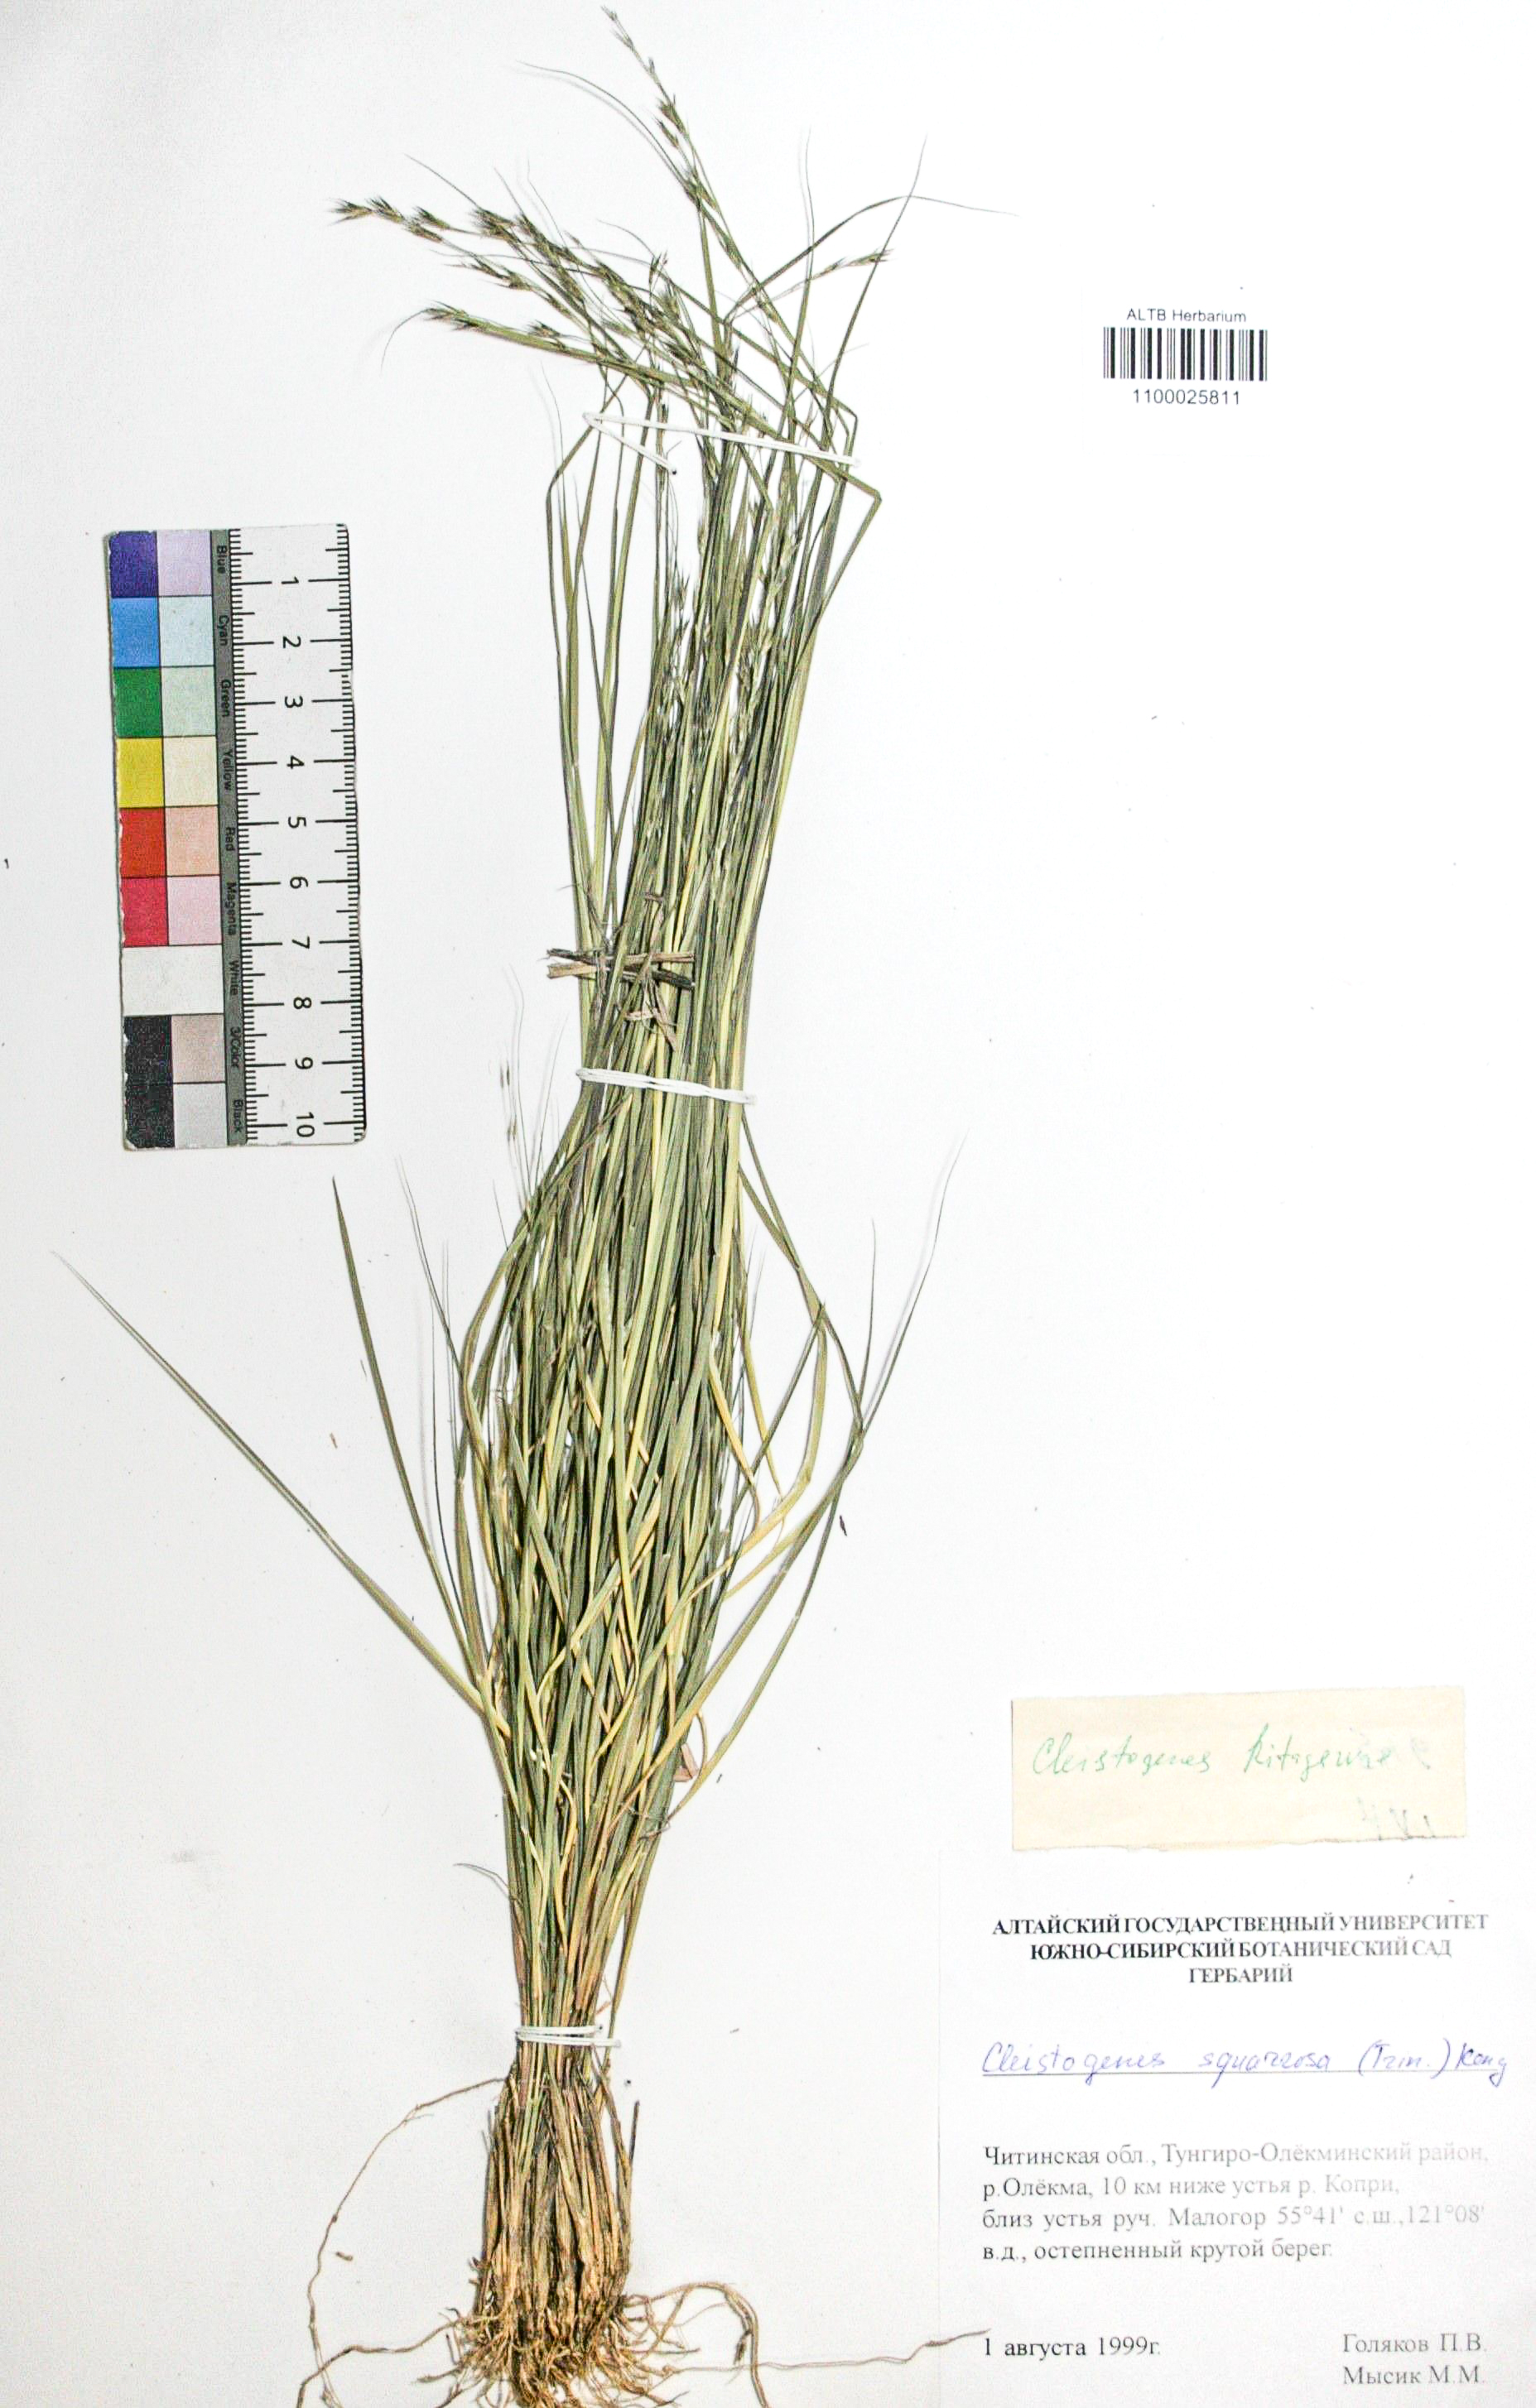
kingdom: Plantae
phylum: Tracheophyta
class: Liliopsida
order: Poales
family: Poaceae
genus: Cleistogenes
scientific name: Cleistogenes squarrosa
